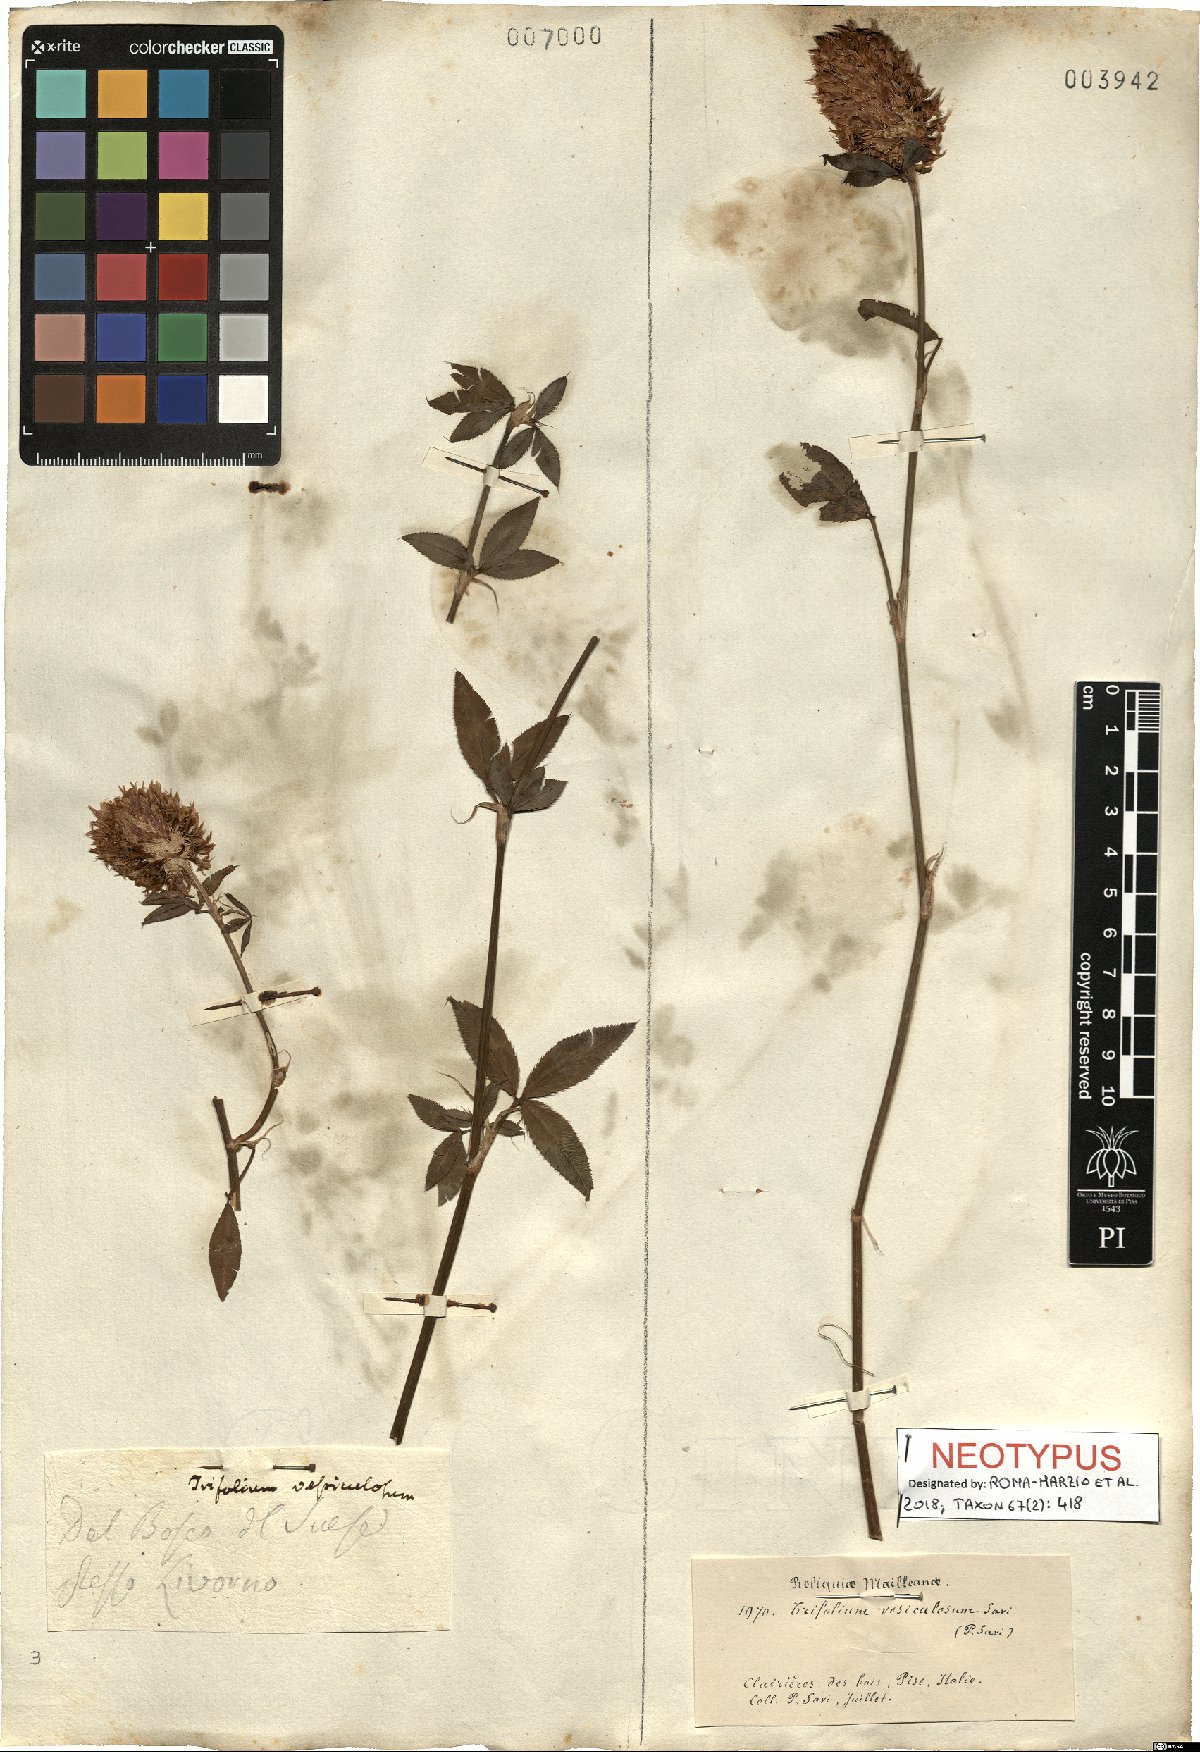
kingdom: Plantae
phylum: Tracheophyta
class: Magnoliopsida
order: Fabales
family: Fabaceae
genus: Trifolium
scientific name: Trifolium vesiculosum
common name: Arrowleaf clover
